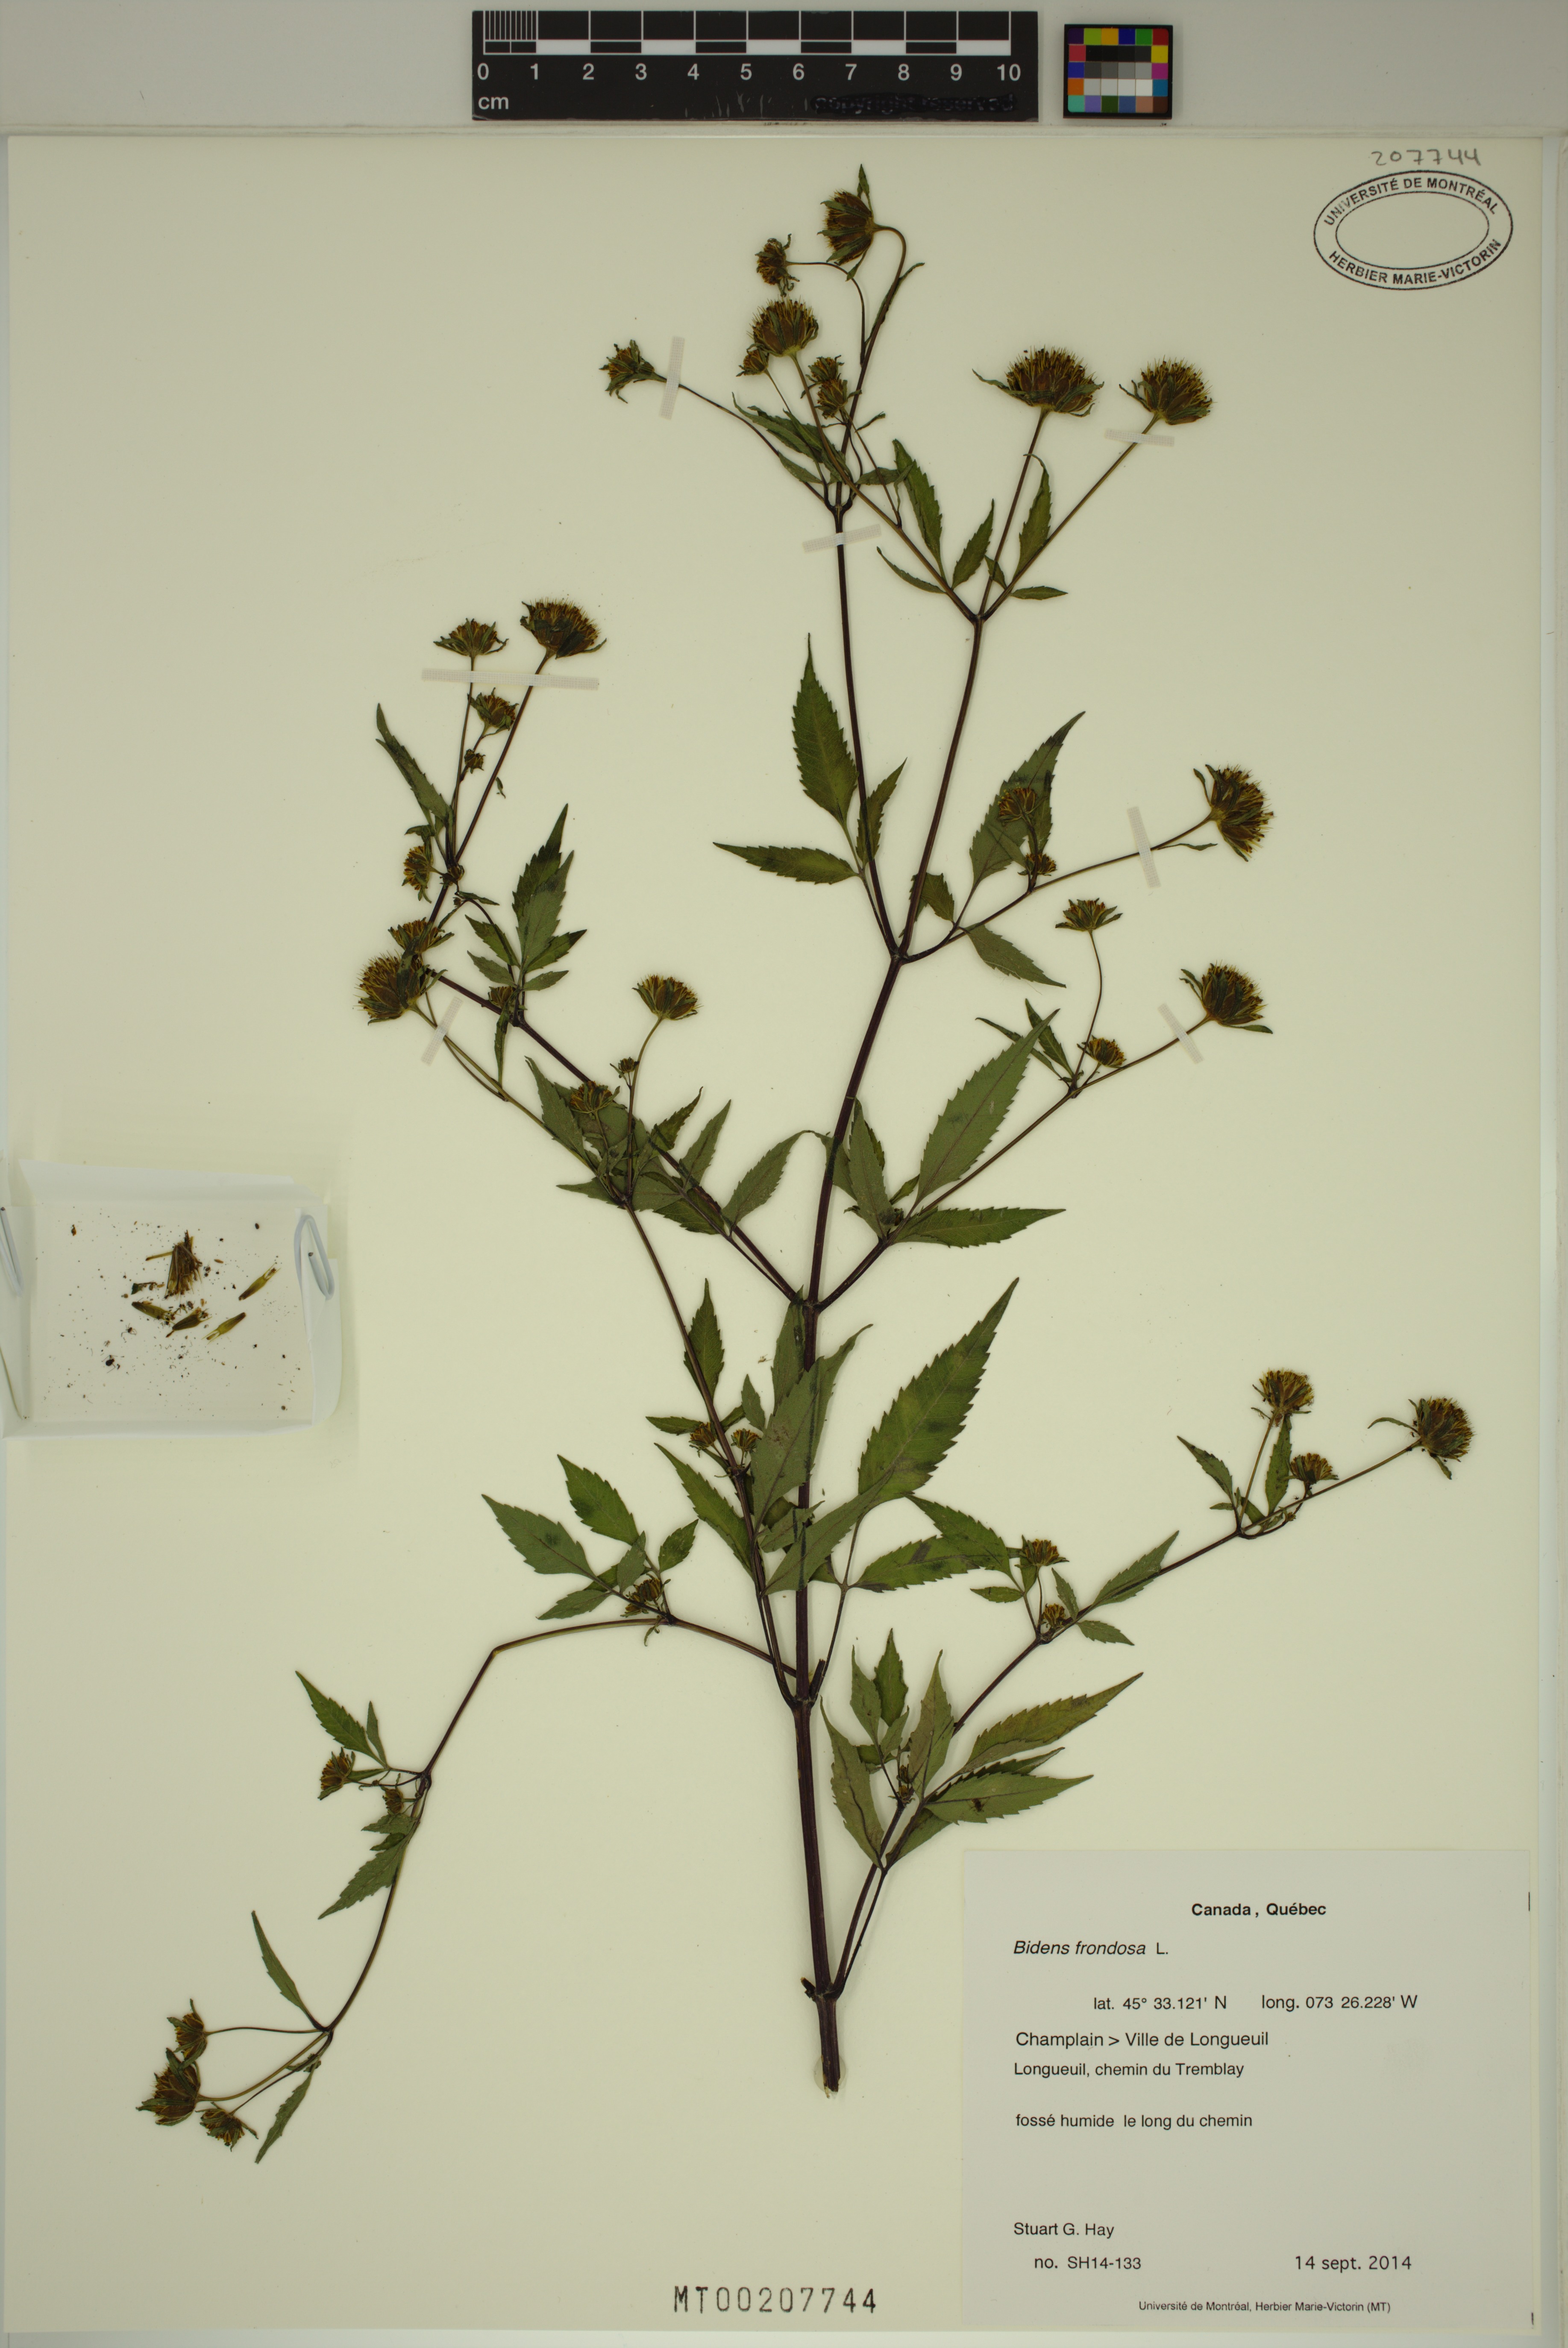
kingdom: Plantae
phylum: Tracheophyta
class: Magnoliopsida
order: Asterales
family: Asteraceae
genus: Bidens
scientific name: Bidens frondosa
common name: Beggarticks
